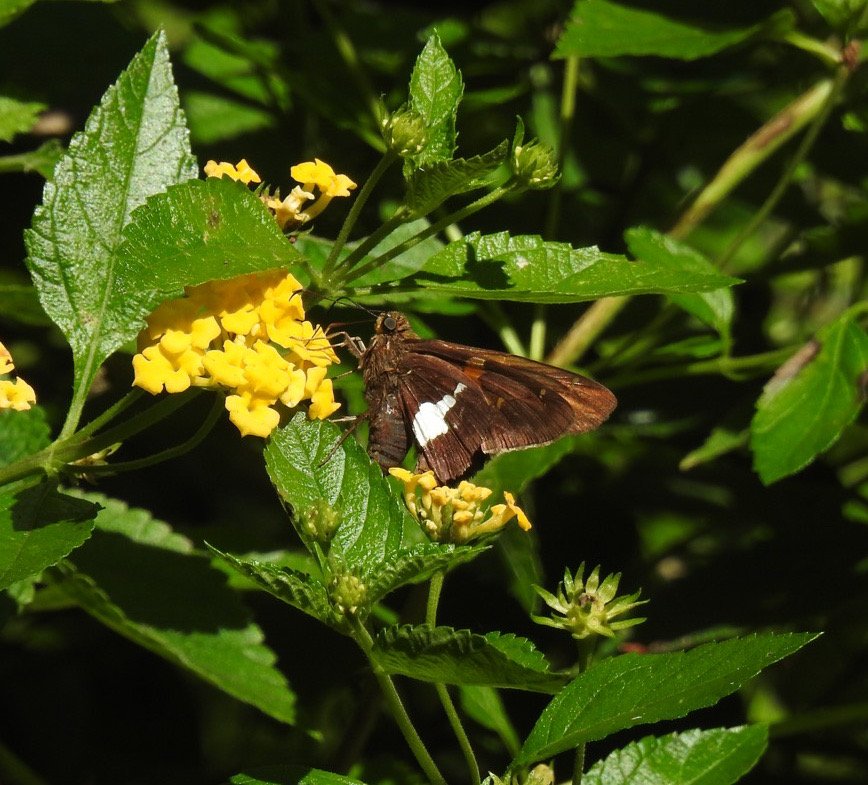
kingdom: Animalia
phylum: Arthropoda
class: Insecta
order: Lepidoptera
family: Hesperiidae
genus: Epargyreus
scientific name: Epargyreus clarus
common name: Silver-spotted Skipper
